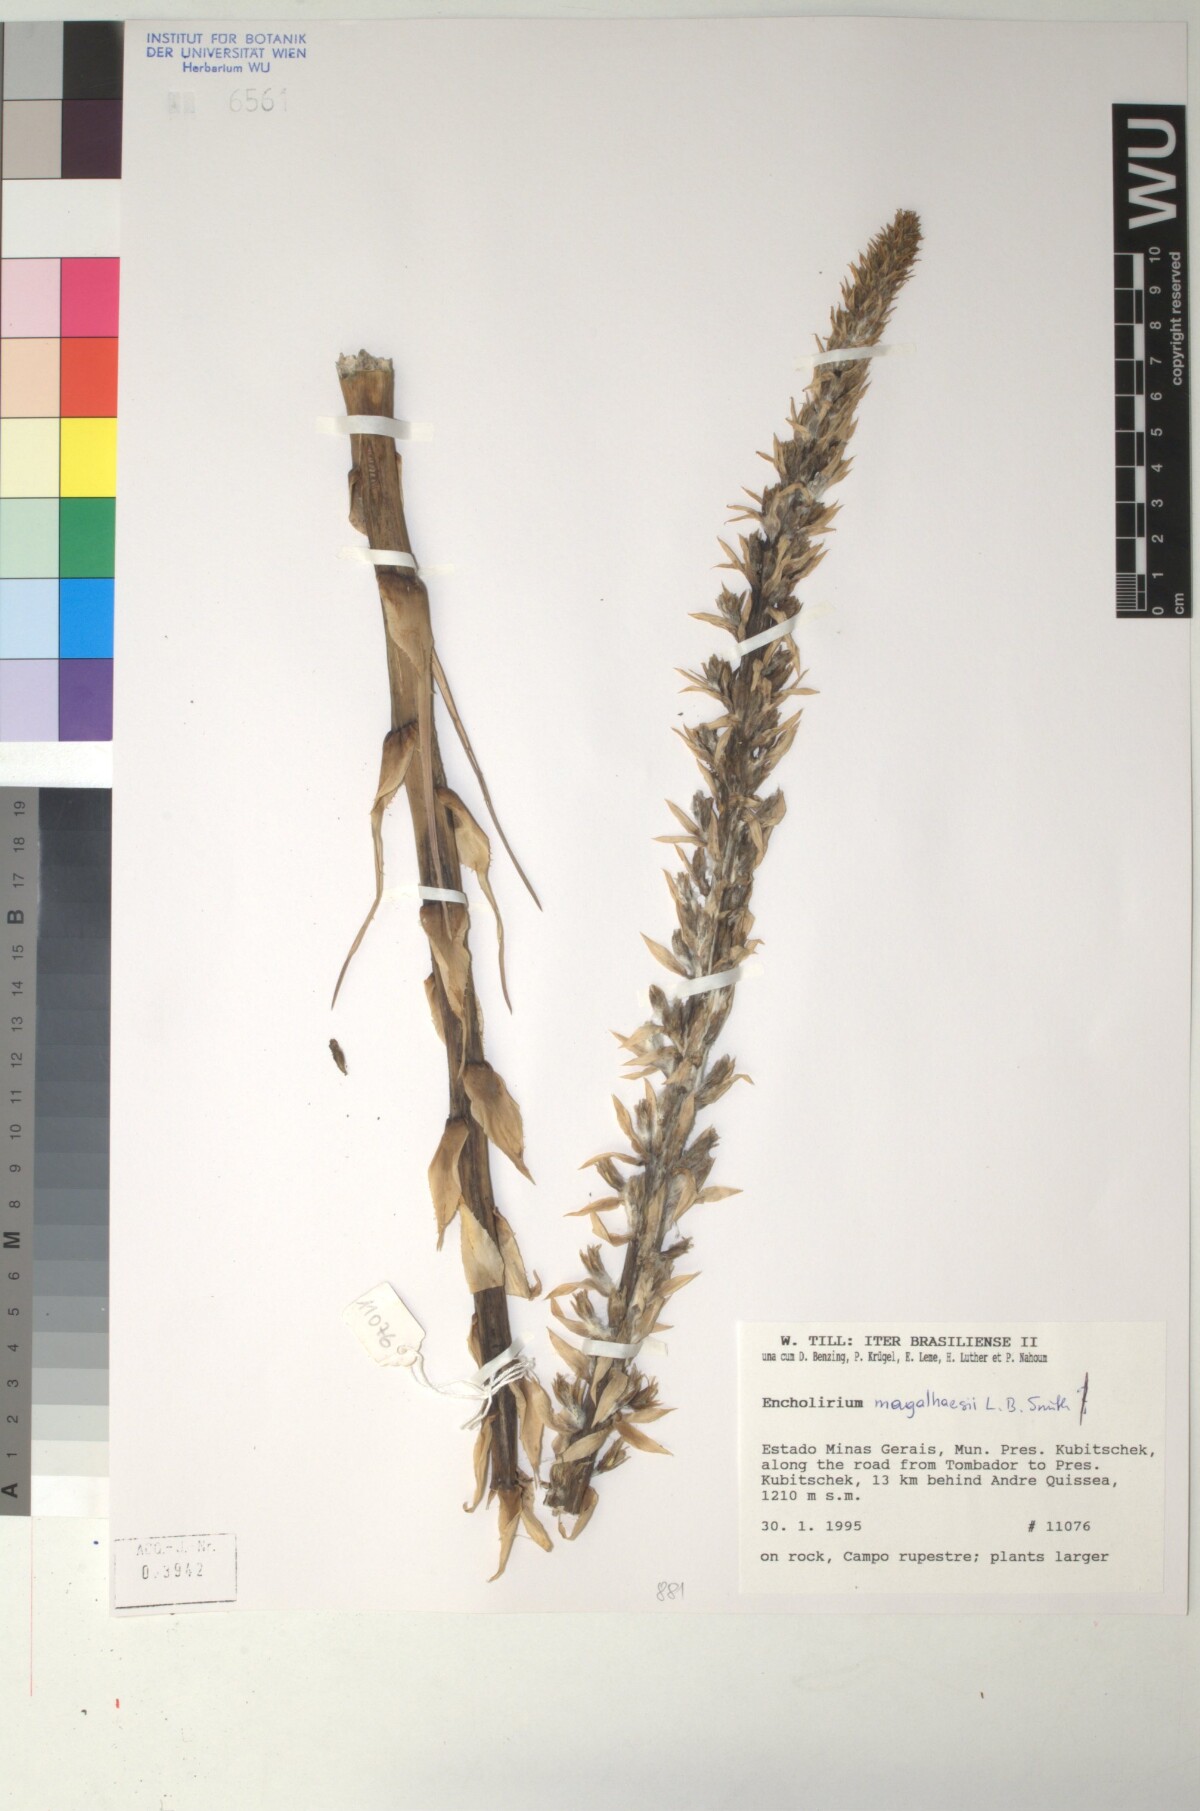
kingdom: Plantae
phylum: Tracheophyta
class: Liliopsida
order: Poales
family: Bromeliaceae
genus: Encholirium
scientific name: Encholirium magalhaesii
